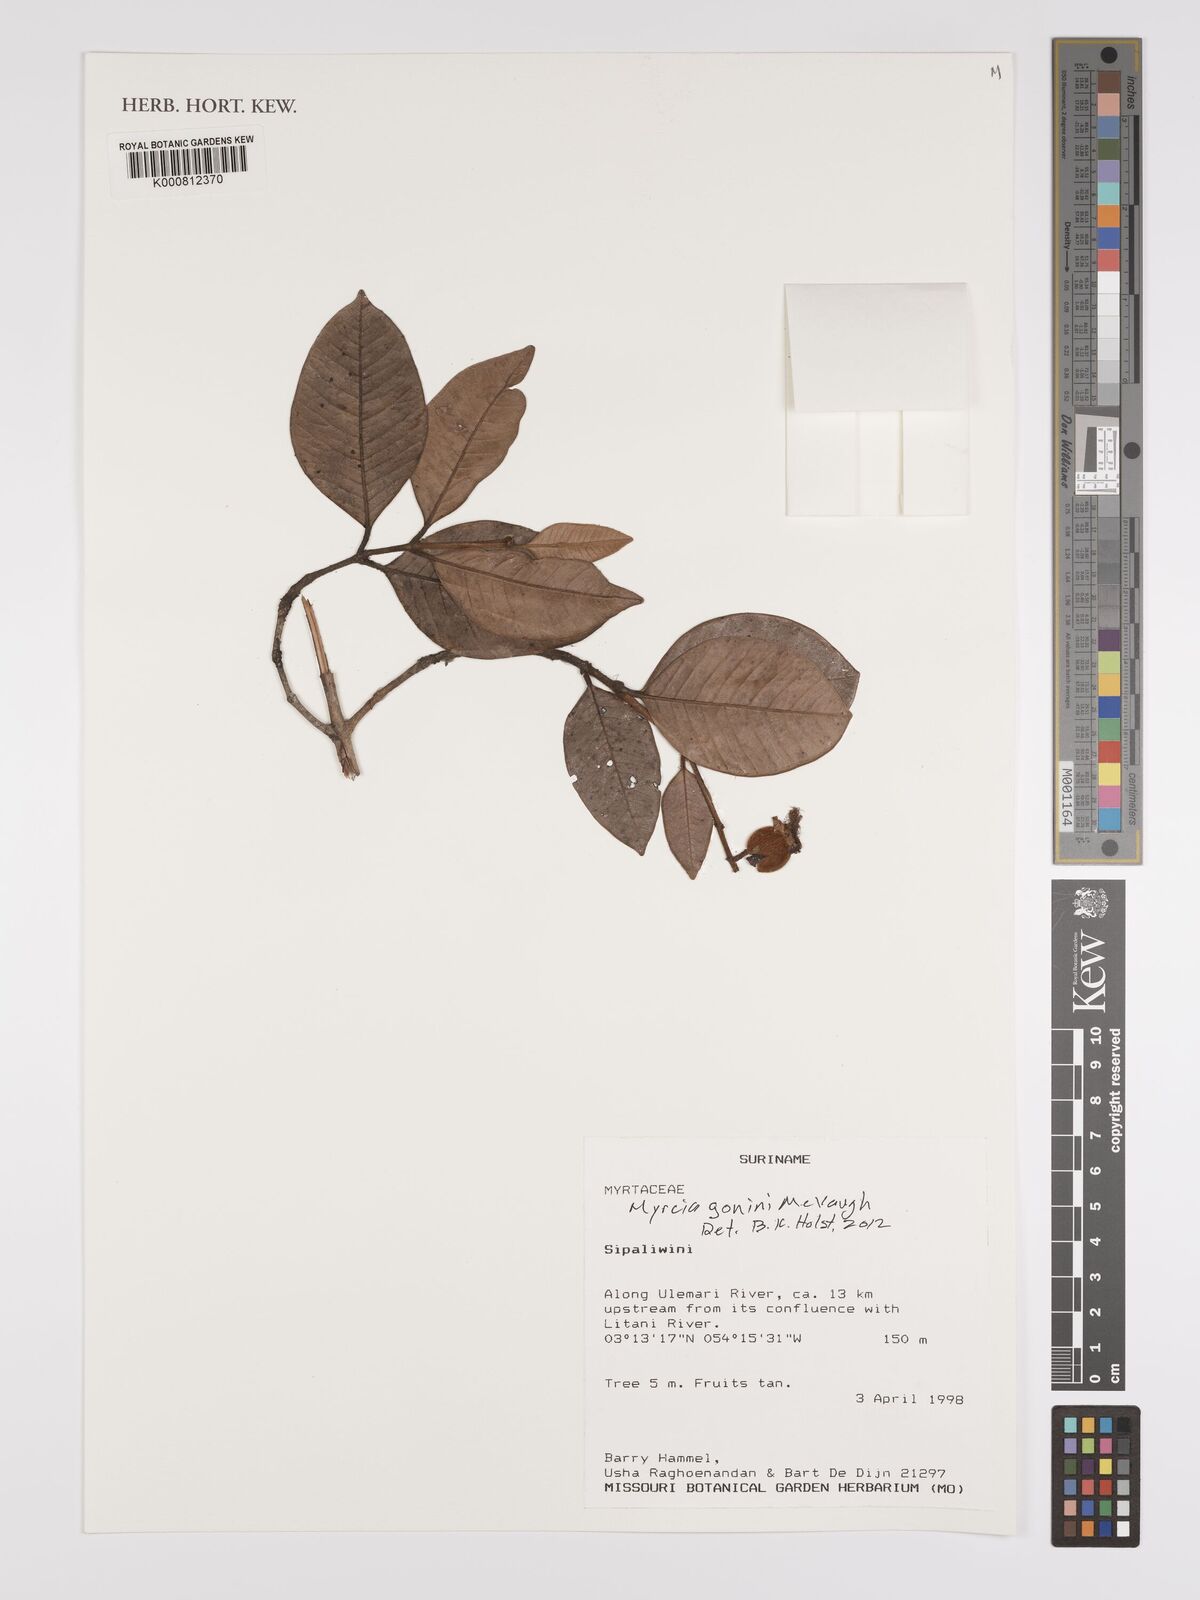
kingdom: Plantae
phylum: Tracheophyta
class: Magnoliopsida
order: Myrtales
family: Myrtaceae
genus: Myrcia
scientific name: Myrcia gonini
